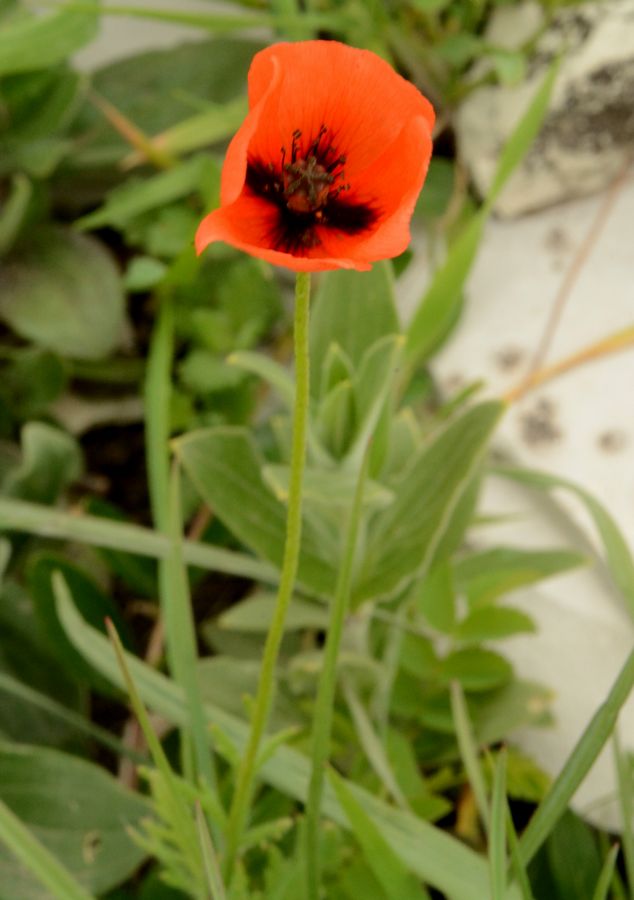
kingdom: Plantae
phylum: Tracheophyta
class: Magnoliopsida
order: Ranunculales
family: Papaveraceae
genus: Papaver
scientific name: Papaver rhoeas
